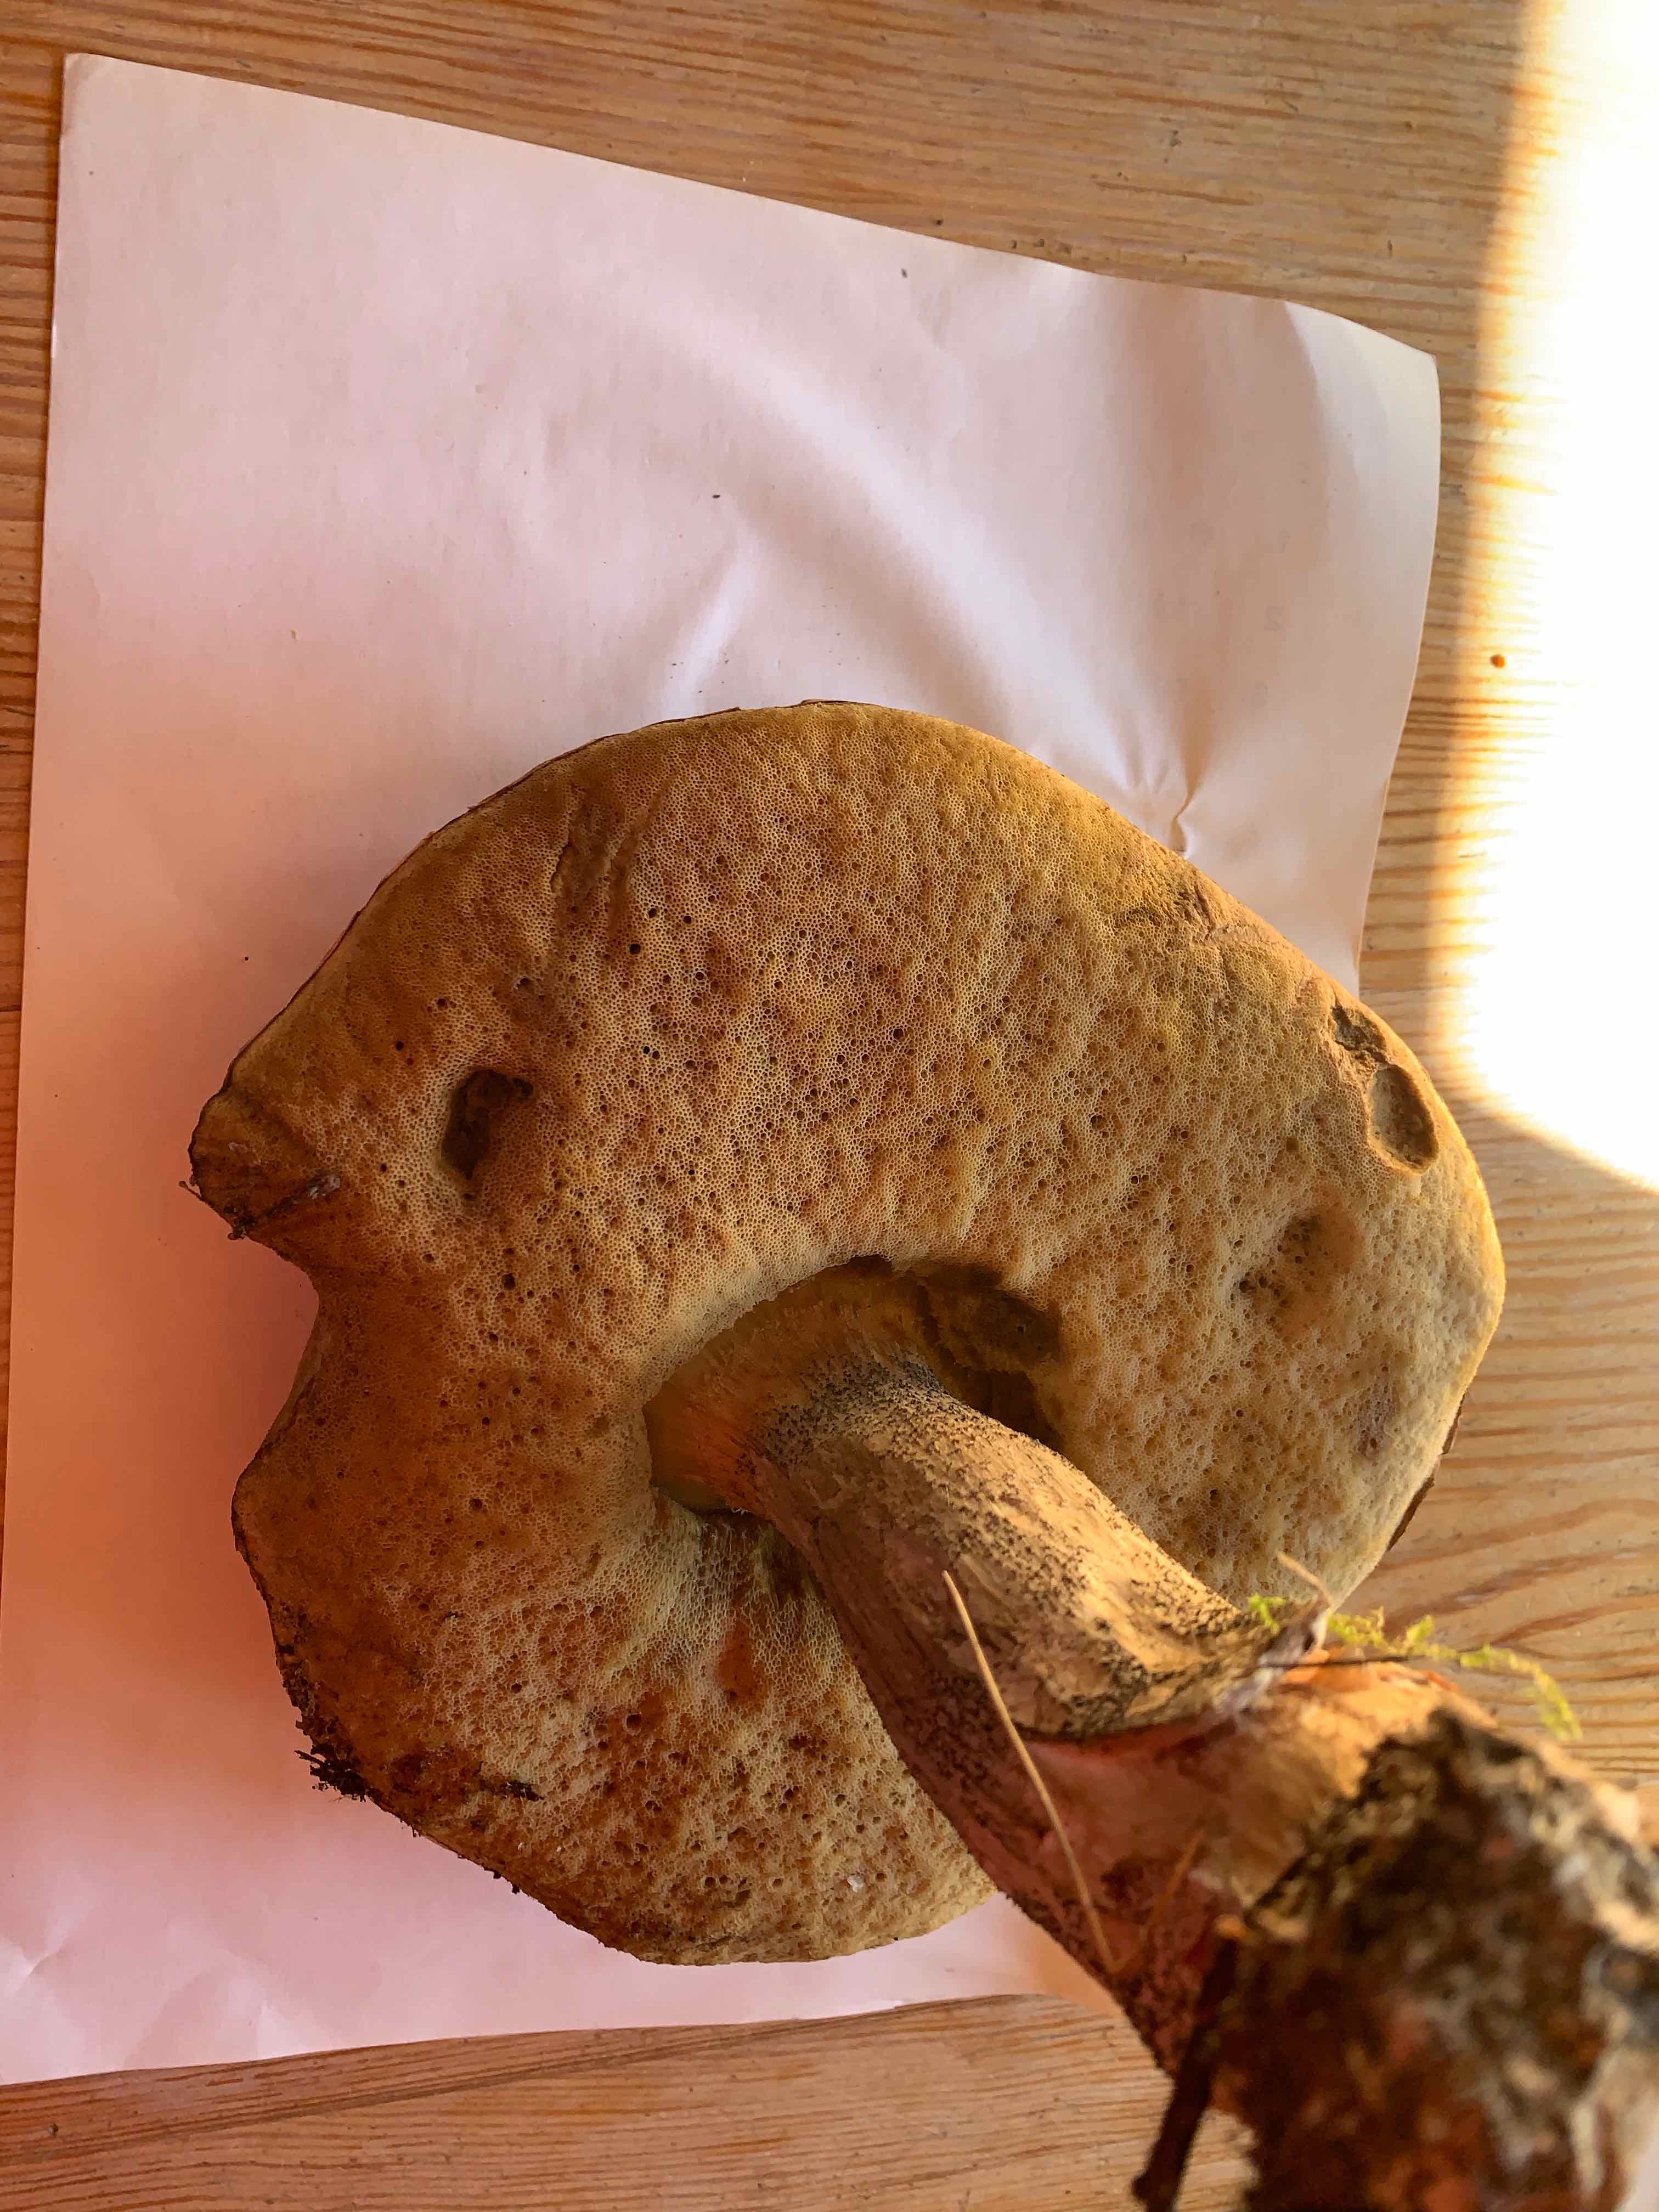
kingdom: Fungi
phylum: Basidiomycota
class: Agaricomycetes
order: Boletales
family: Boletaceae
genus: Leccinum
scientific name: Leccinum
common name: skælrørhat
